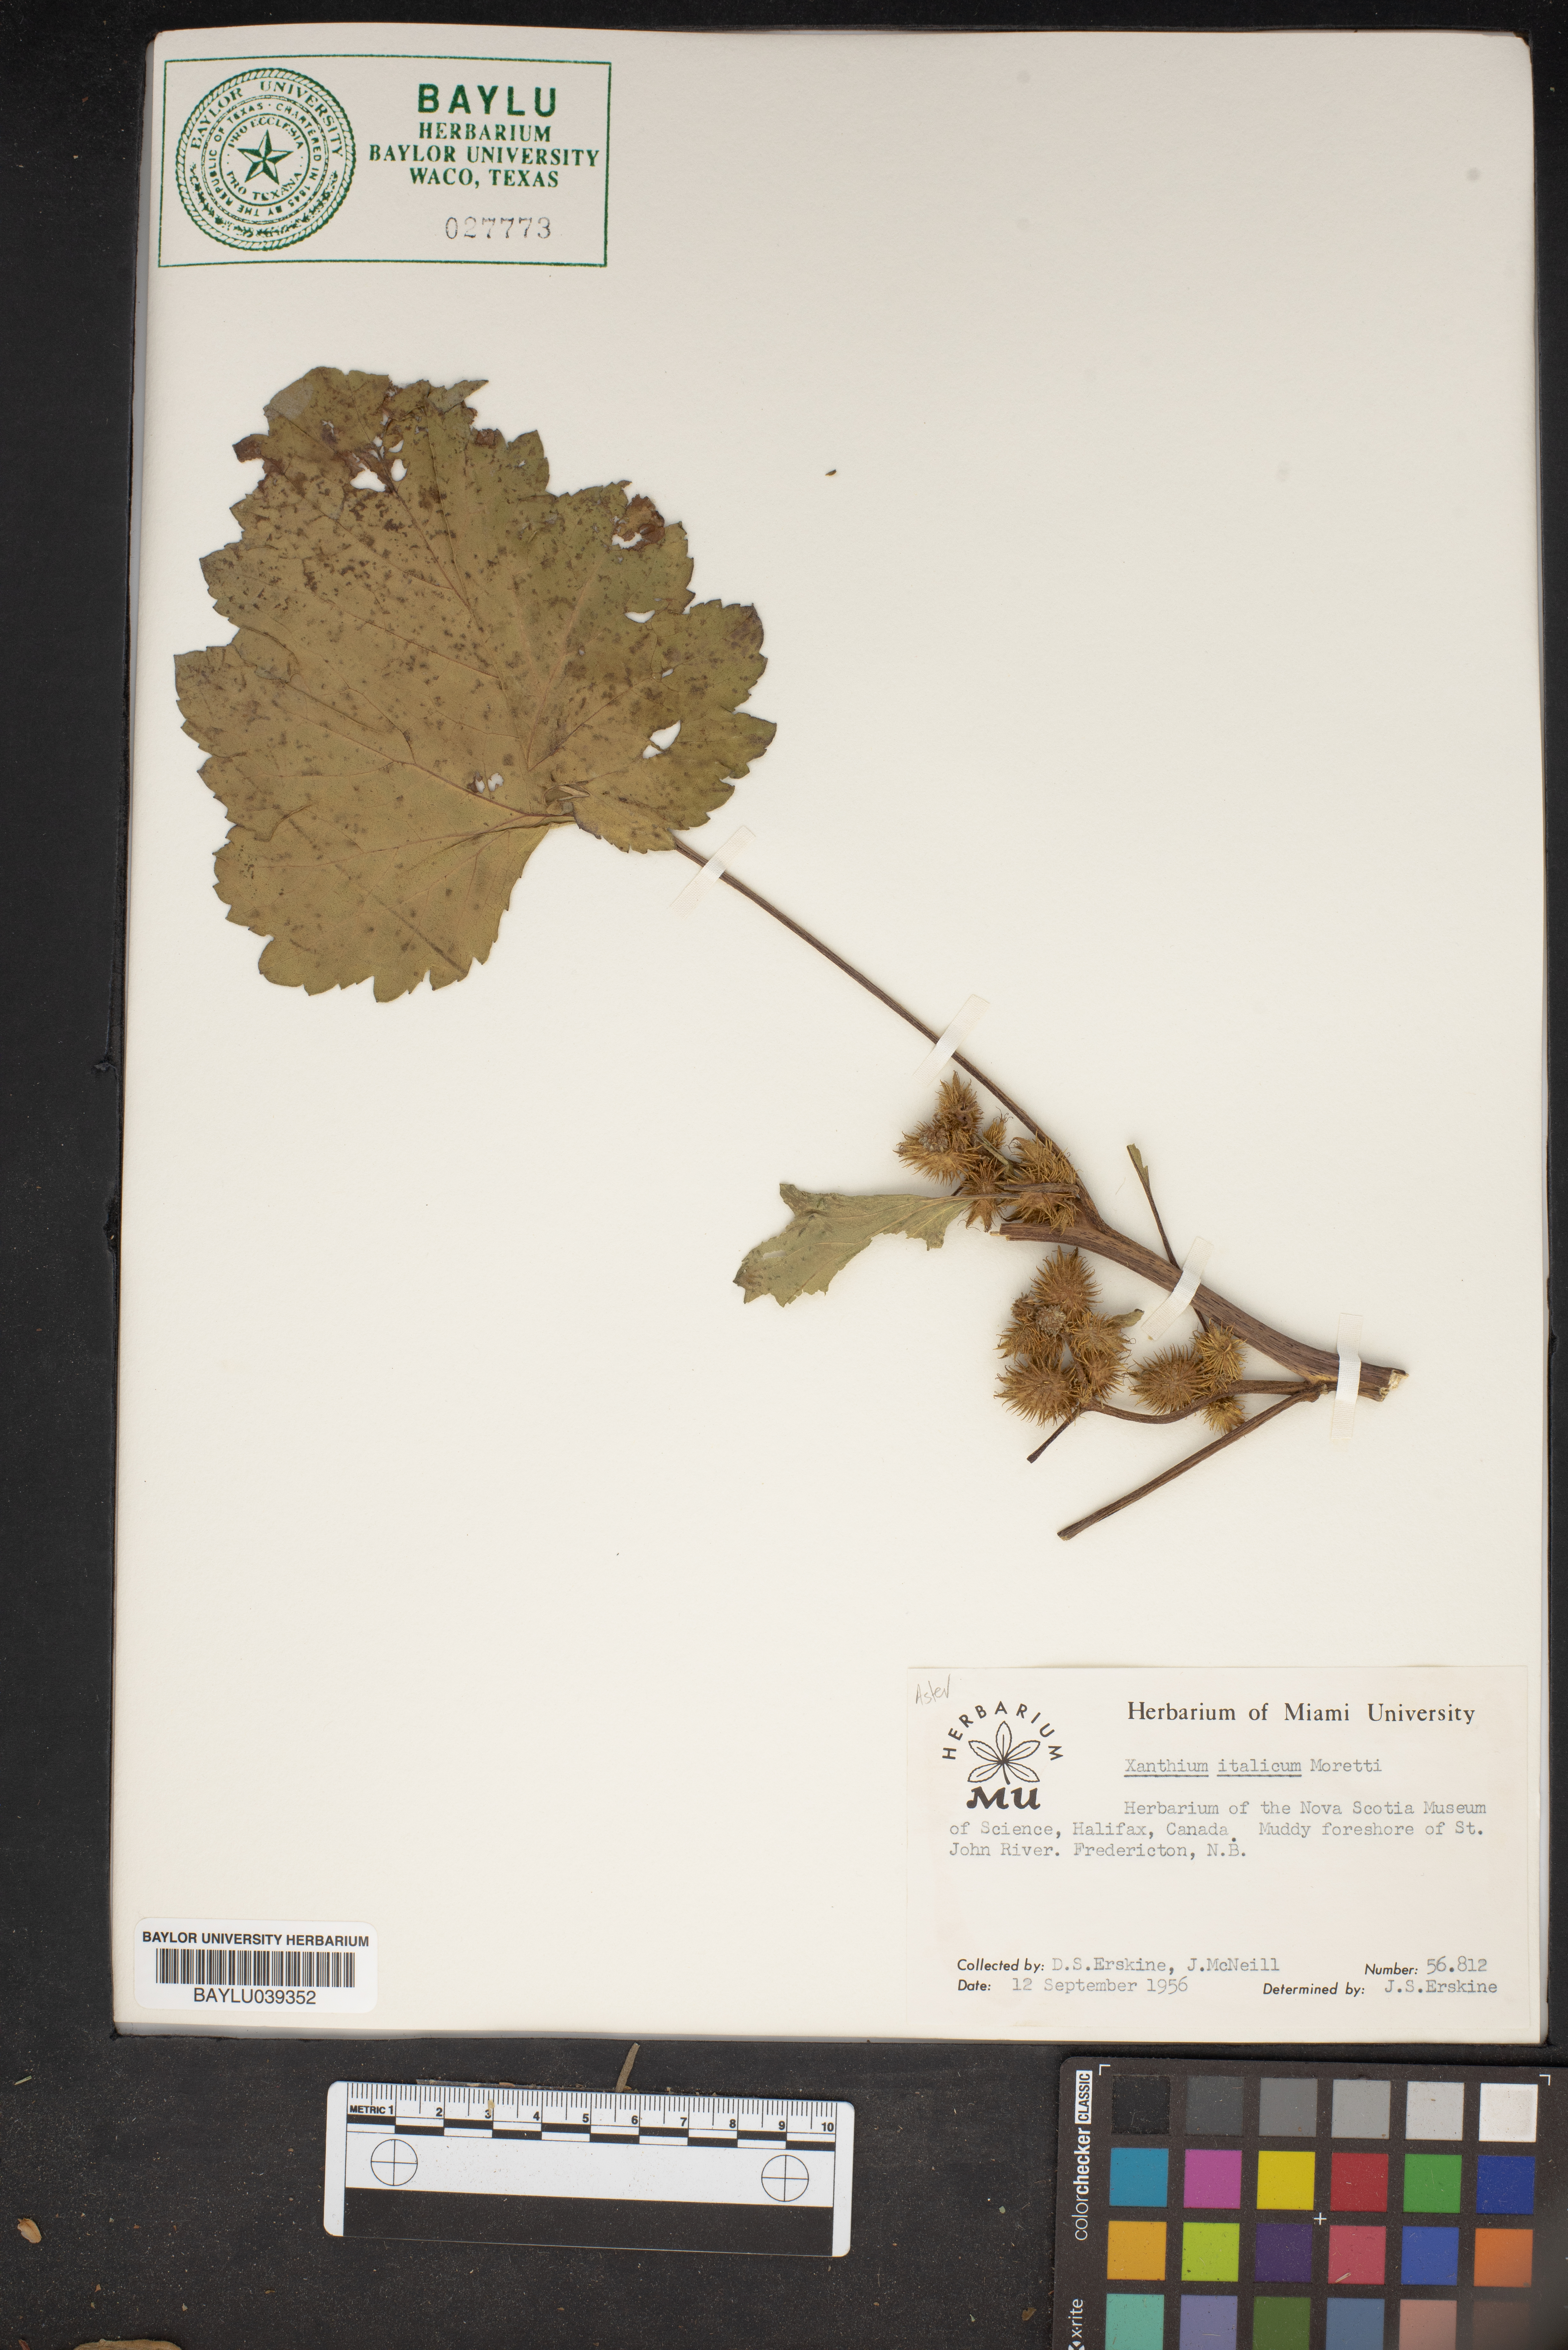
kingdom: Plantae
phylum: Tracheophyta
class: Magnoliopsida
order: Asterales
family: Asteraceae
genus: Xanthium
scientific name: Xanthium orientale
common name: Californian burr
